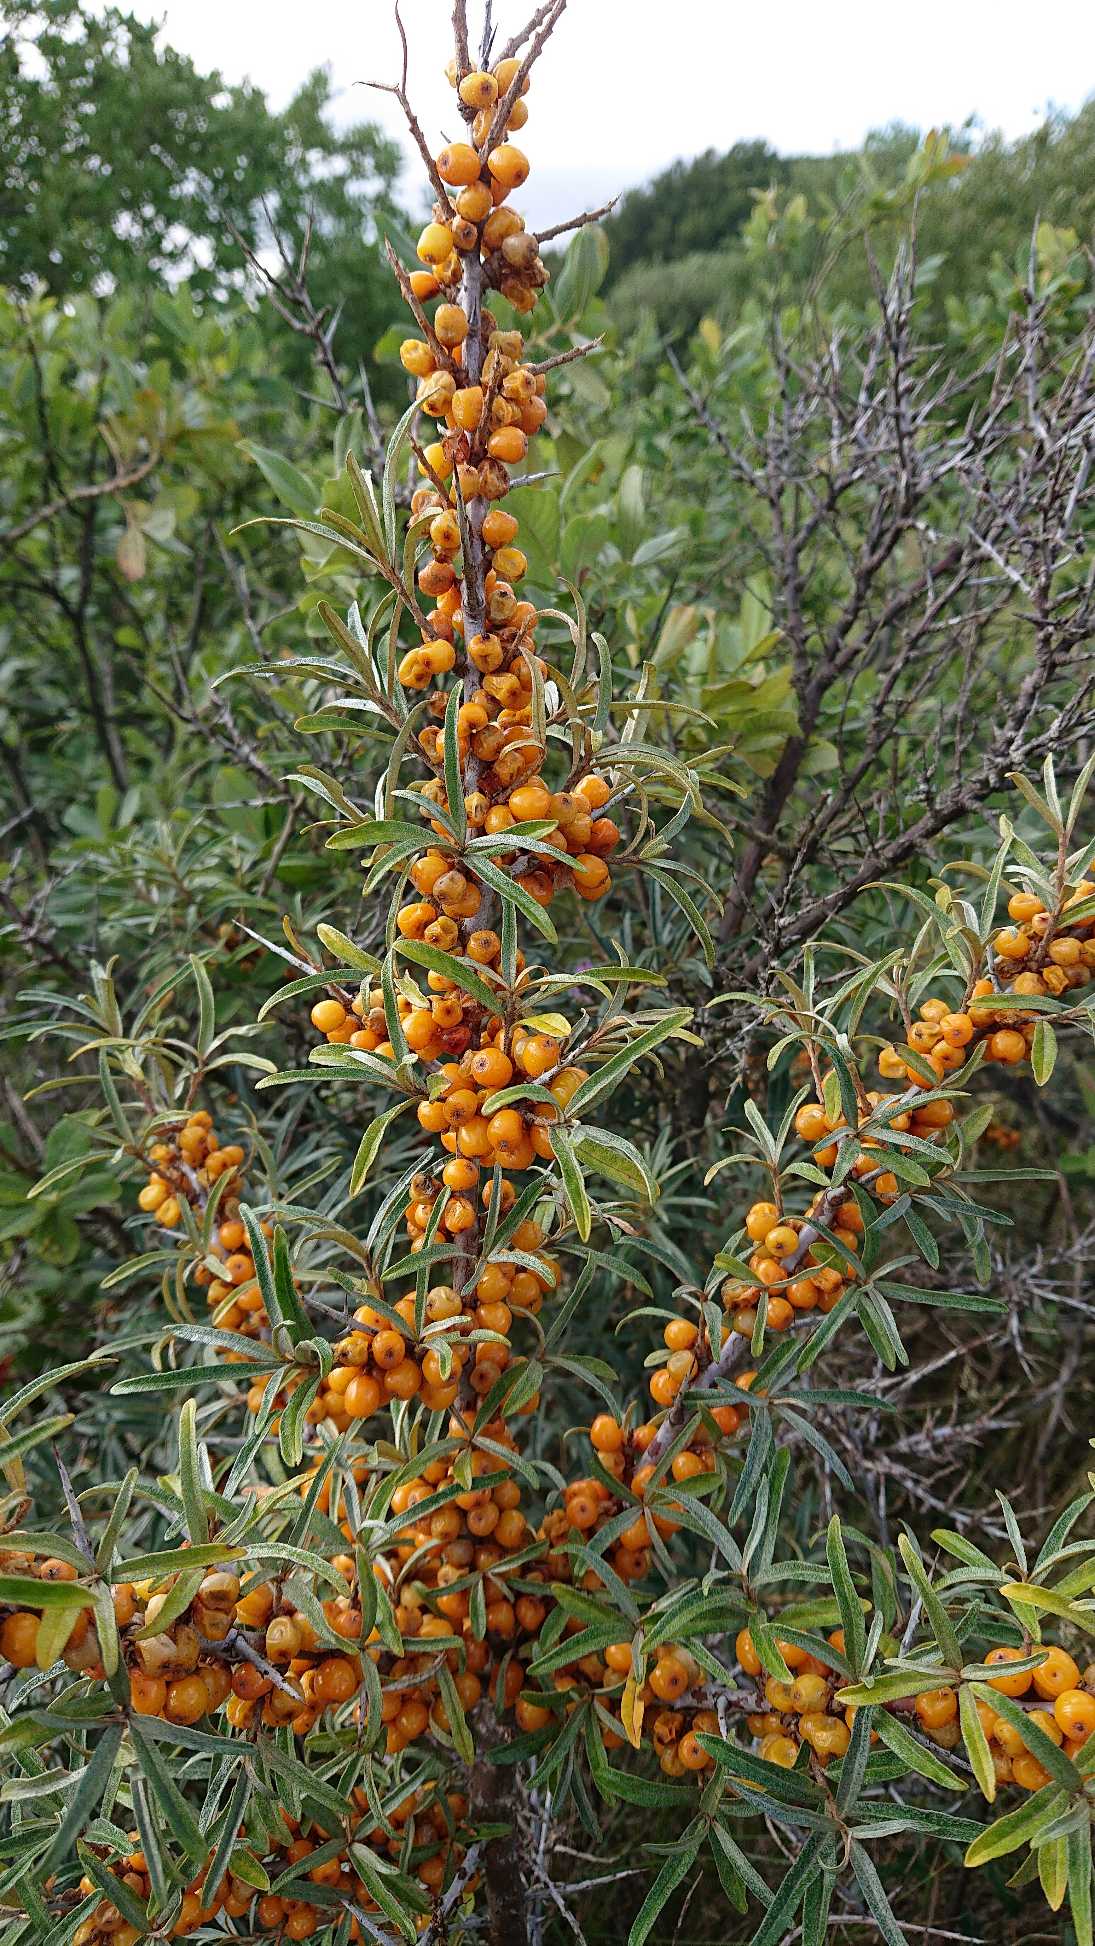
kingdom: Plantae
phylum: Tracheophyta
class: Magnoliopsida
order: Rosales
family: Elaeagnaceae
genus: Hippophae
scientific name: Hippophae rhamnoides
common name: Havtorn
